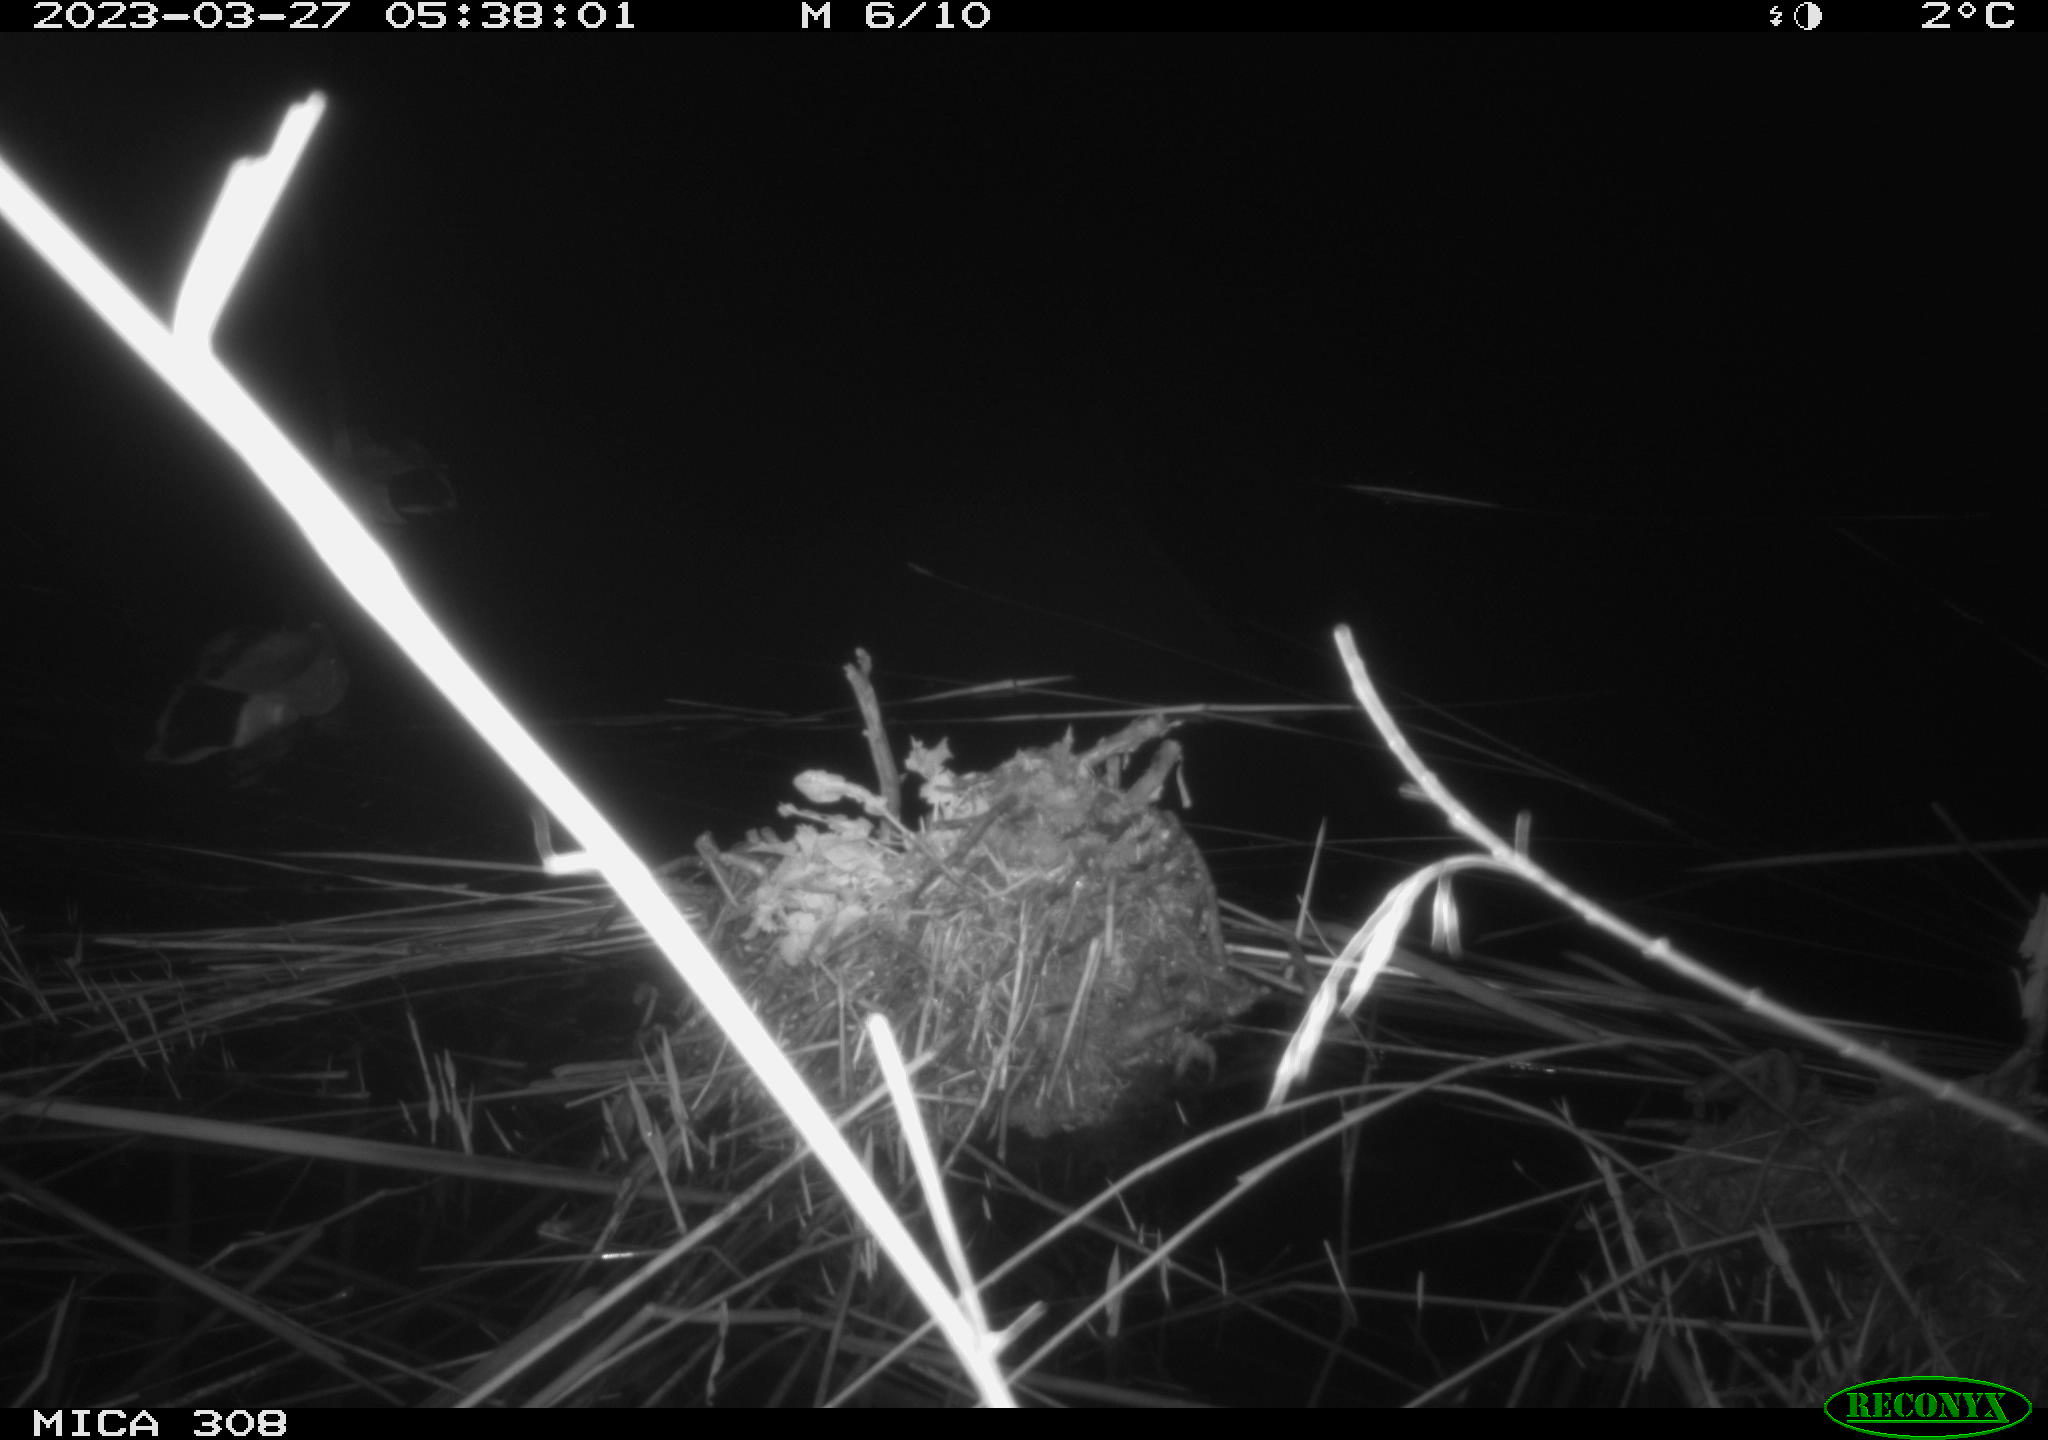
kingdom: Animalia
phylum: Chordata
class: Aves
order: Anseriformes
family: Anatidae
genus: Anas
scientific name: Anas
